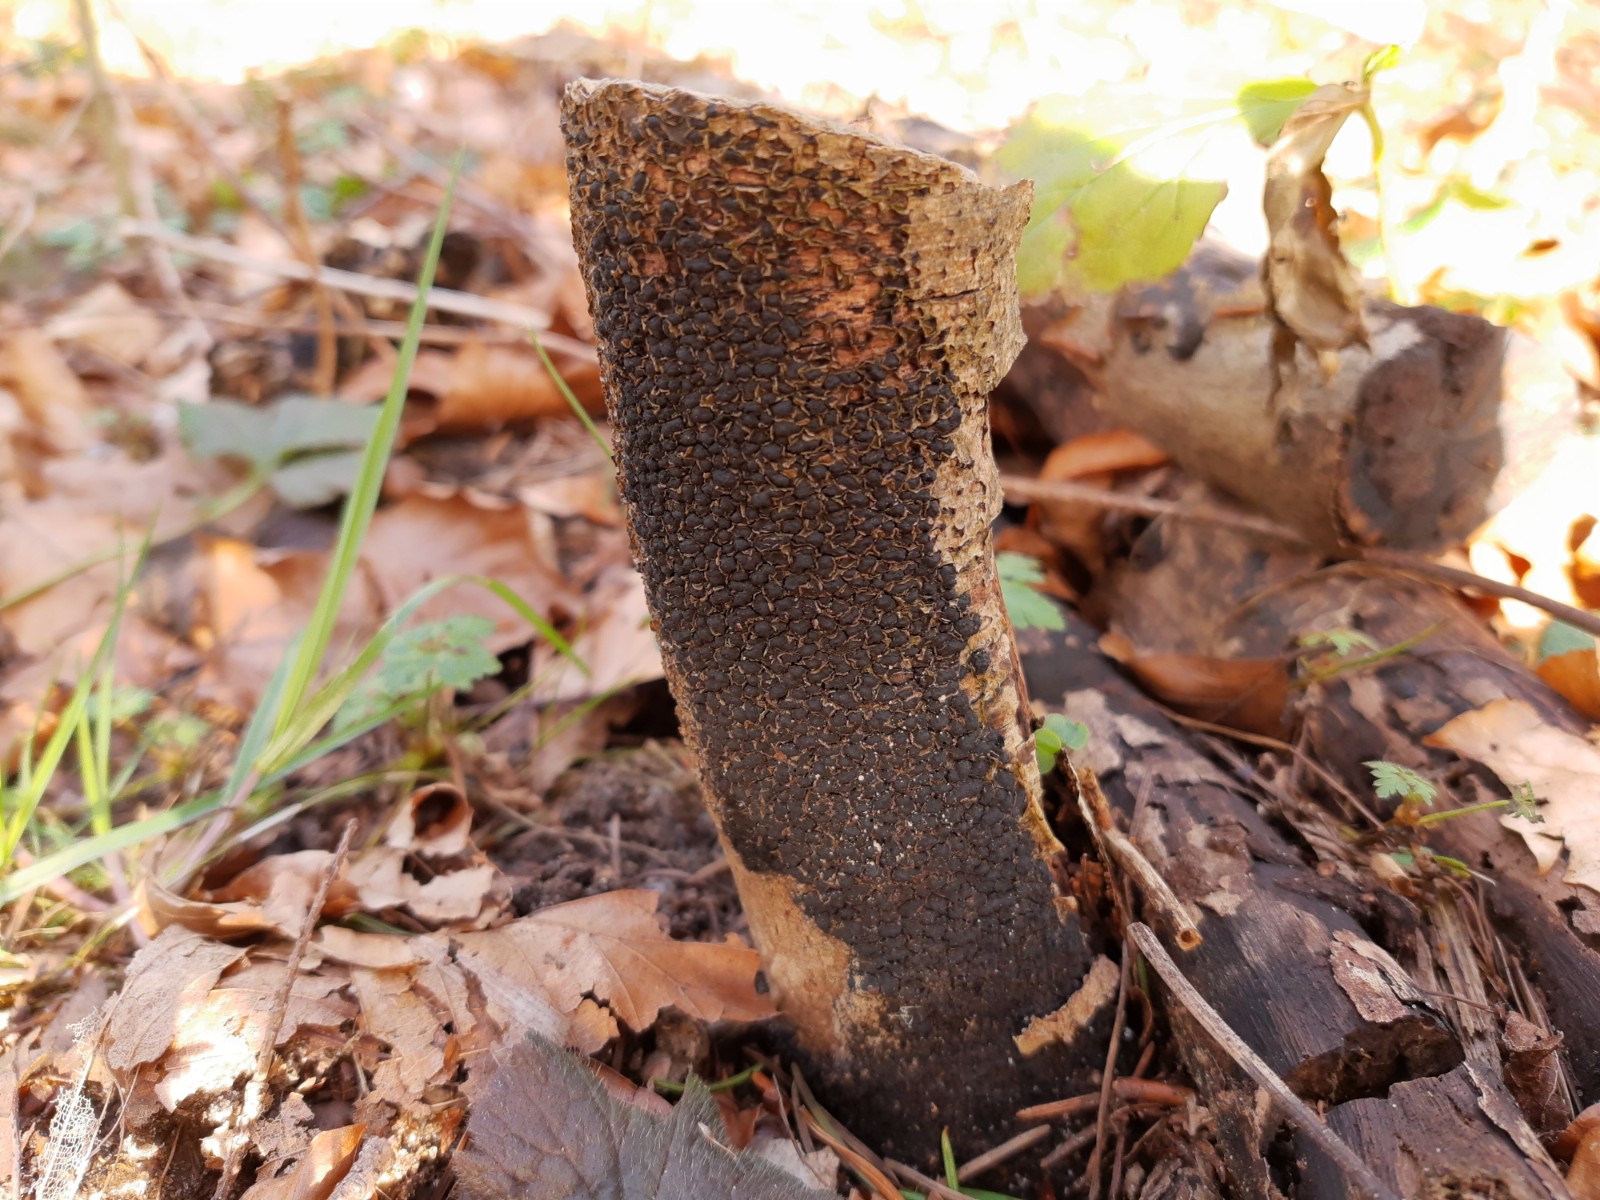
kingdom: Fungi
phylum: Ascomycota
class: Sordariomycetes
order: Xylariales
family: Melogrammataceae
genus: Melogramma
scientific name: Melogramma spiniferum
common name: bøgefod-kulhals
